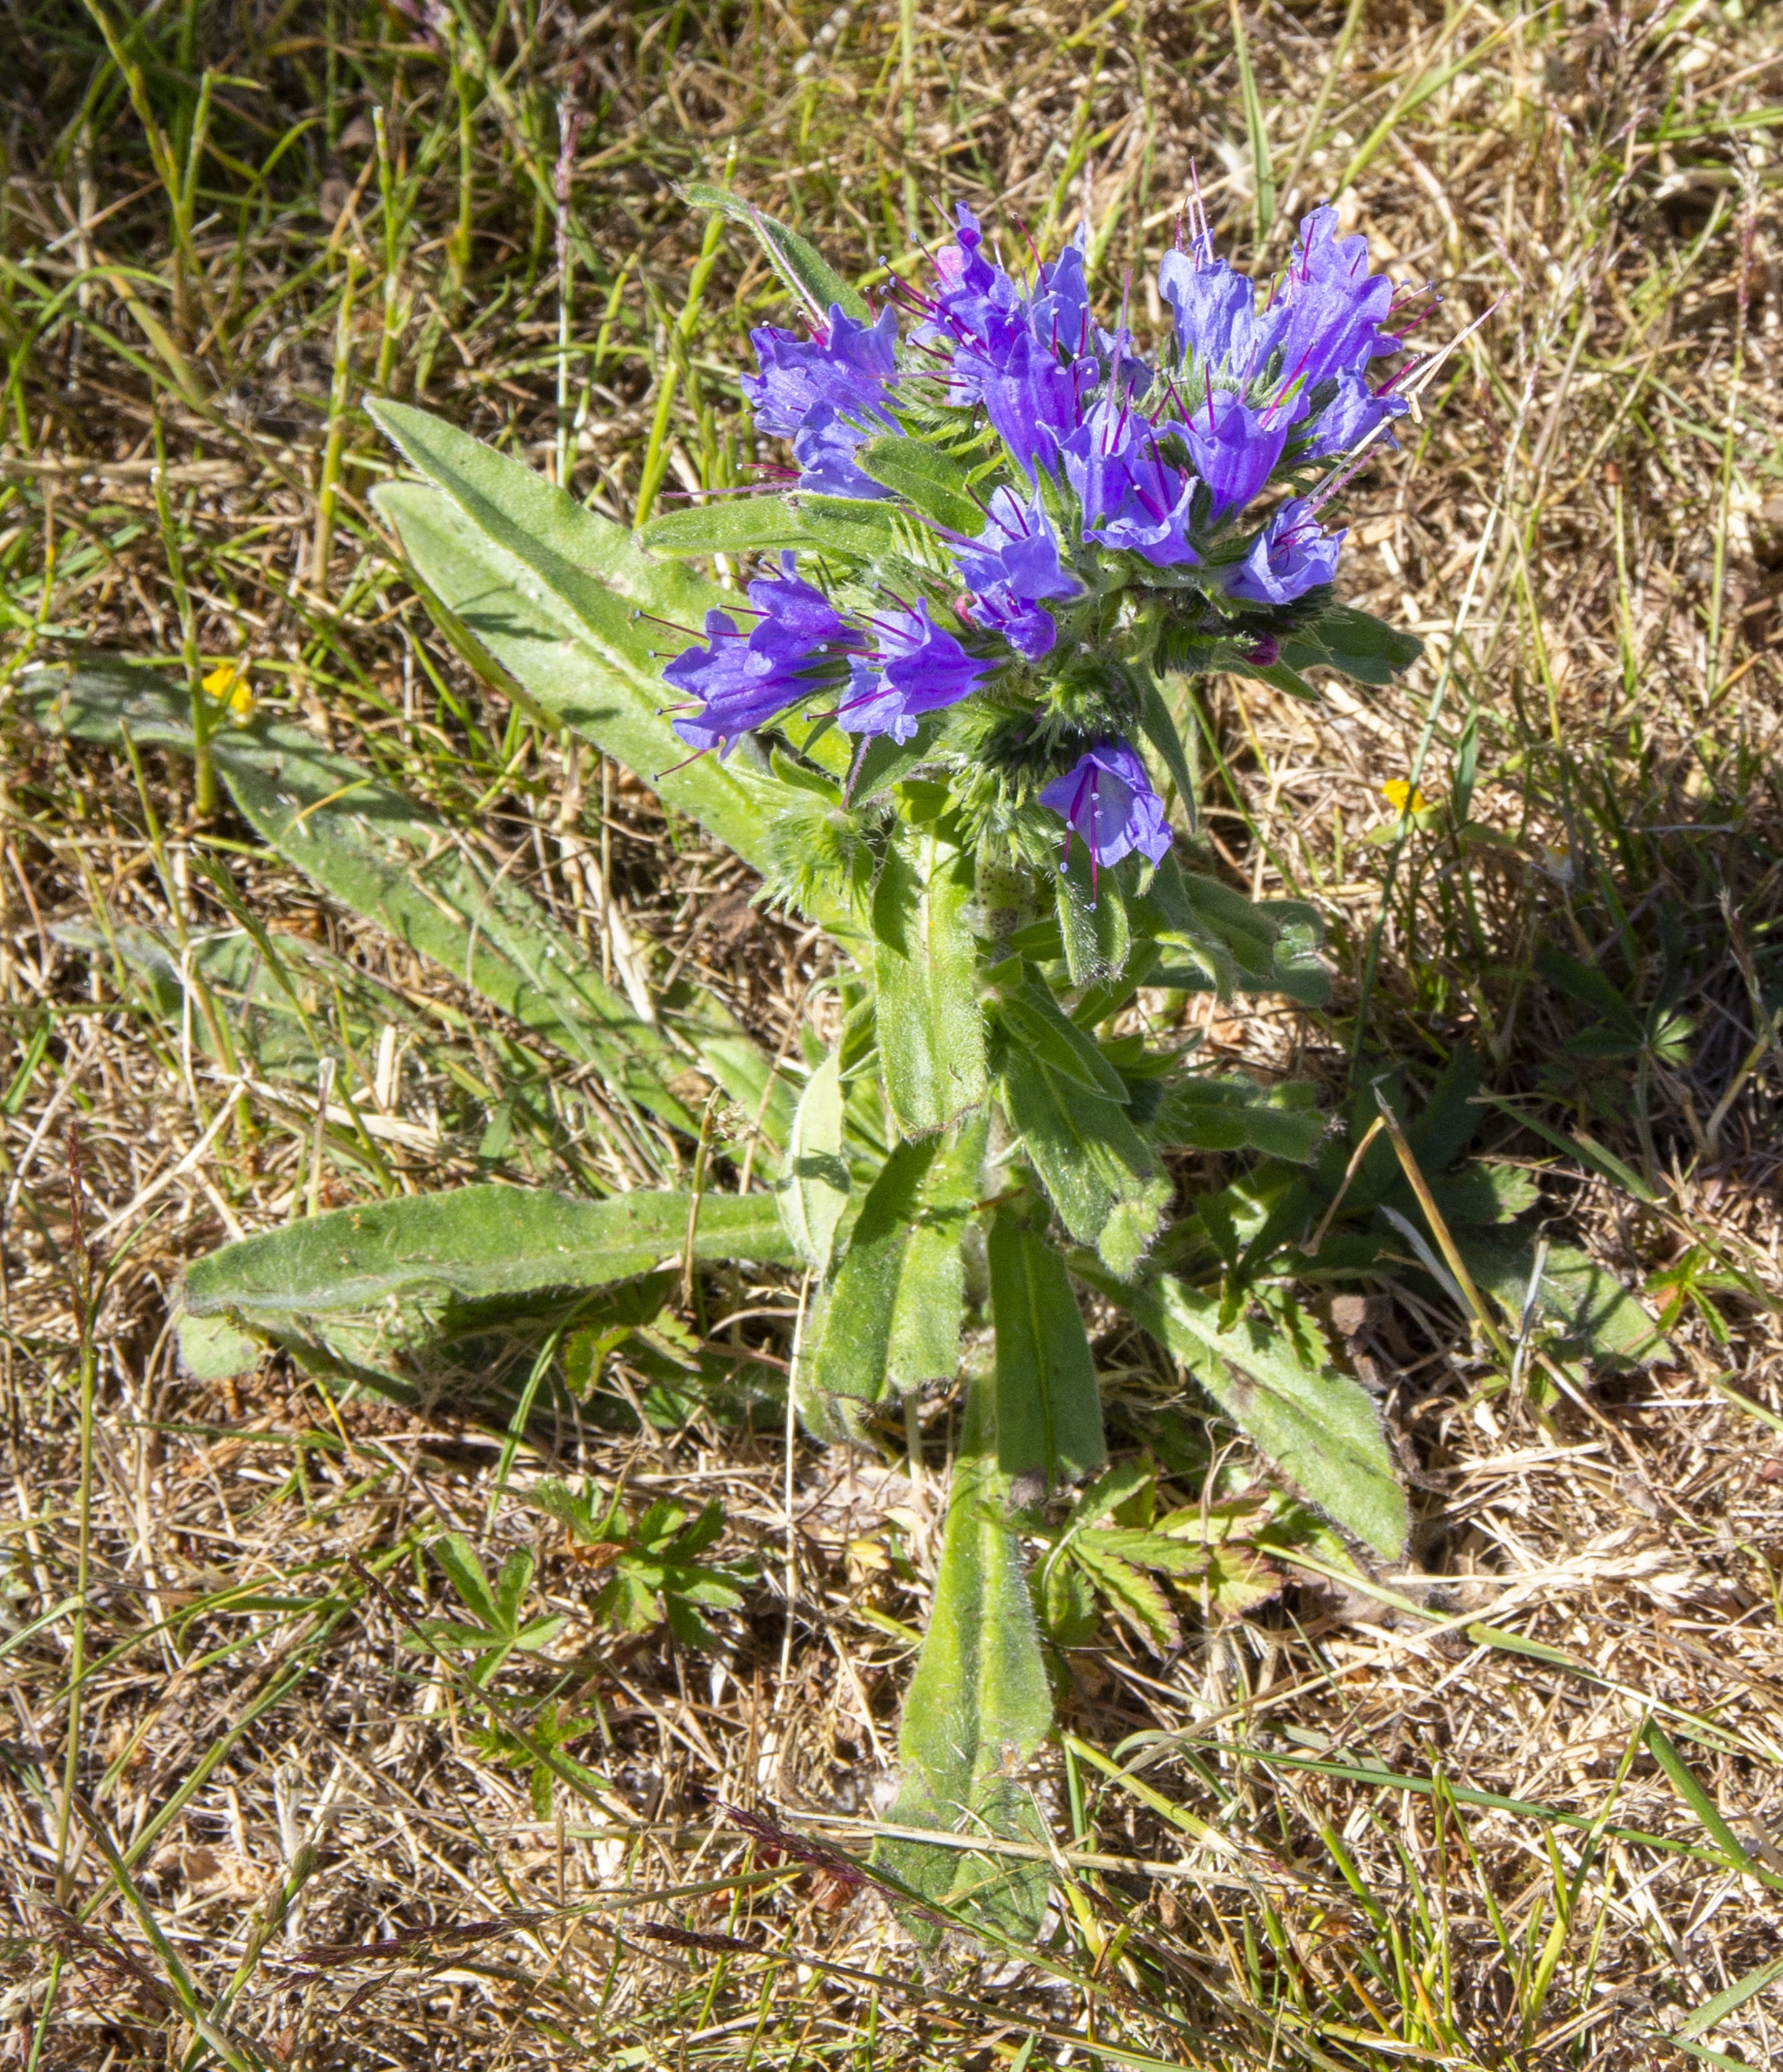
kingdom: Plantae
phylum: Tracheophyta
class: Magnoliopsida
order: Boraginales
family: Boraginaceae
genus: Echium
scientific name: Echium vulgare
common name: Slangehoved
